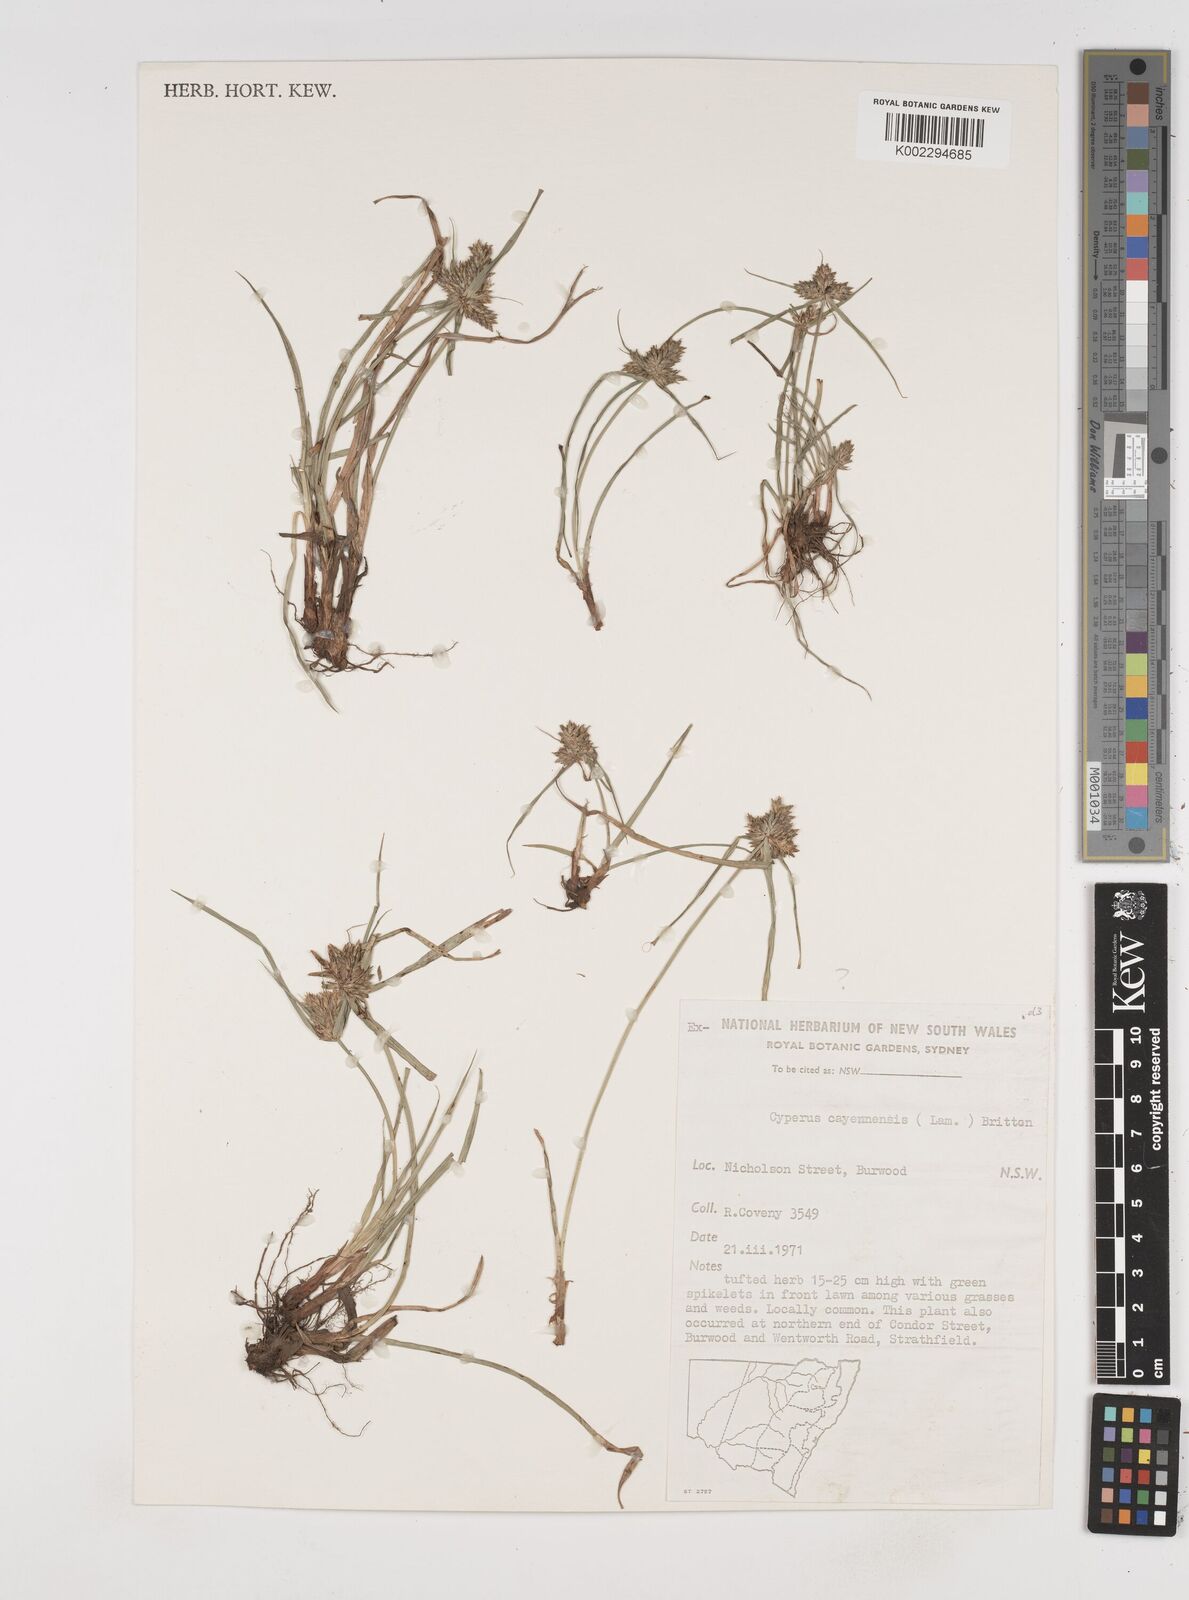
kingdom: Plantae
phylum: Tracheophyta
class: Liliopsida
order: Poales
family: Cyperaceae
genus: Cyperus
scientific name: Cyperus aggregatus
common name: Inflatedscale flatsedge
